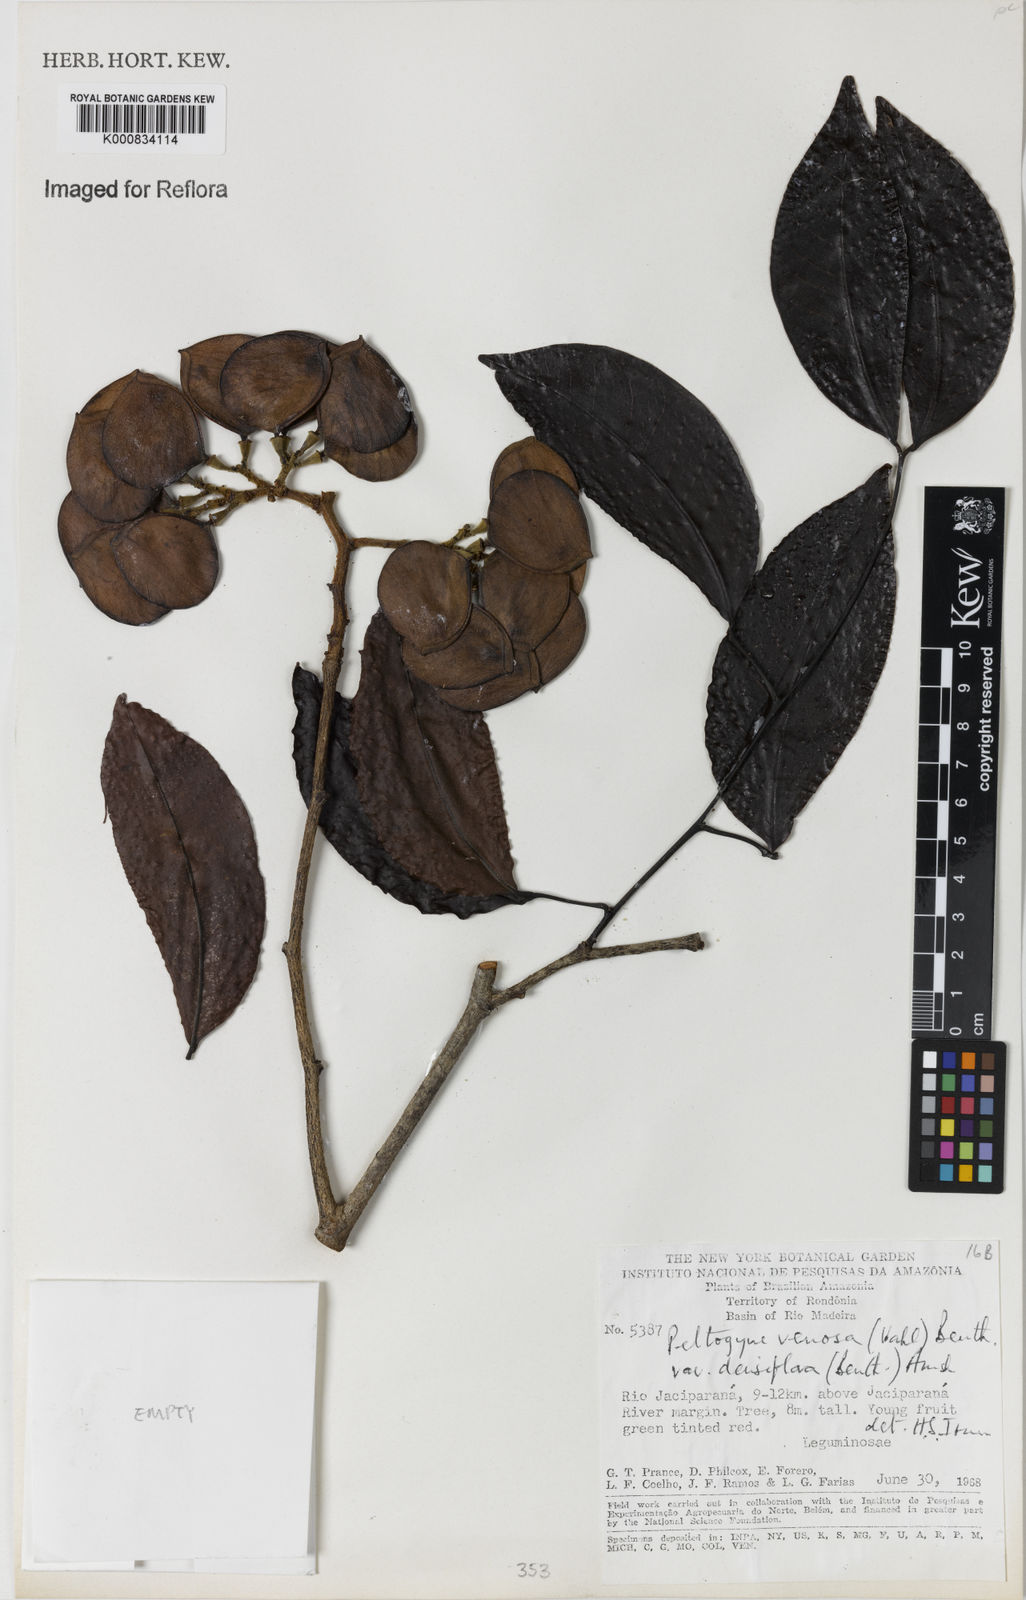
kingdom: Plantae
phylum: Tracheophyta
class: Magnoliopsida
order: Fabales
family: Fabaceae
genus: Peltogyne
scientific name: Peltogyne venosa
